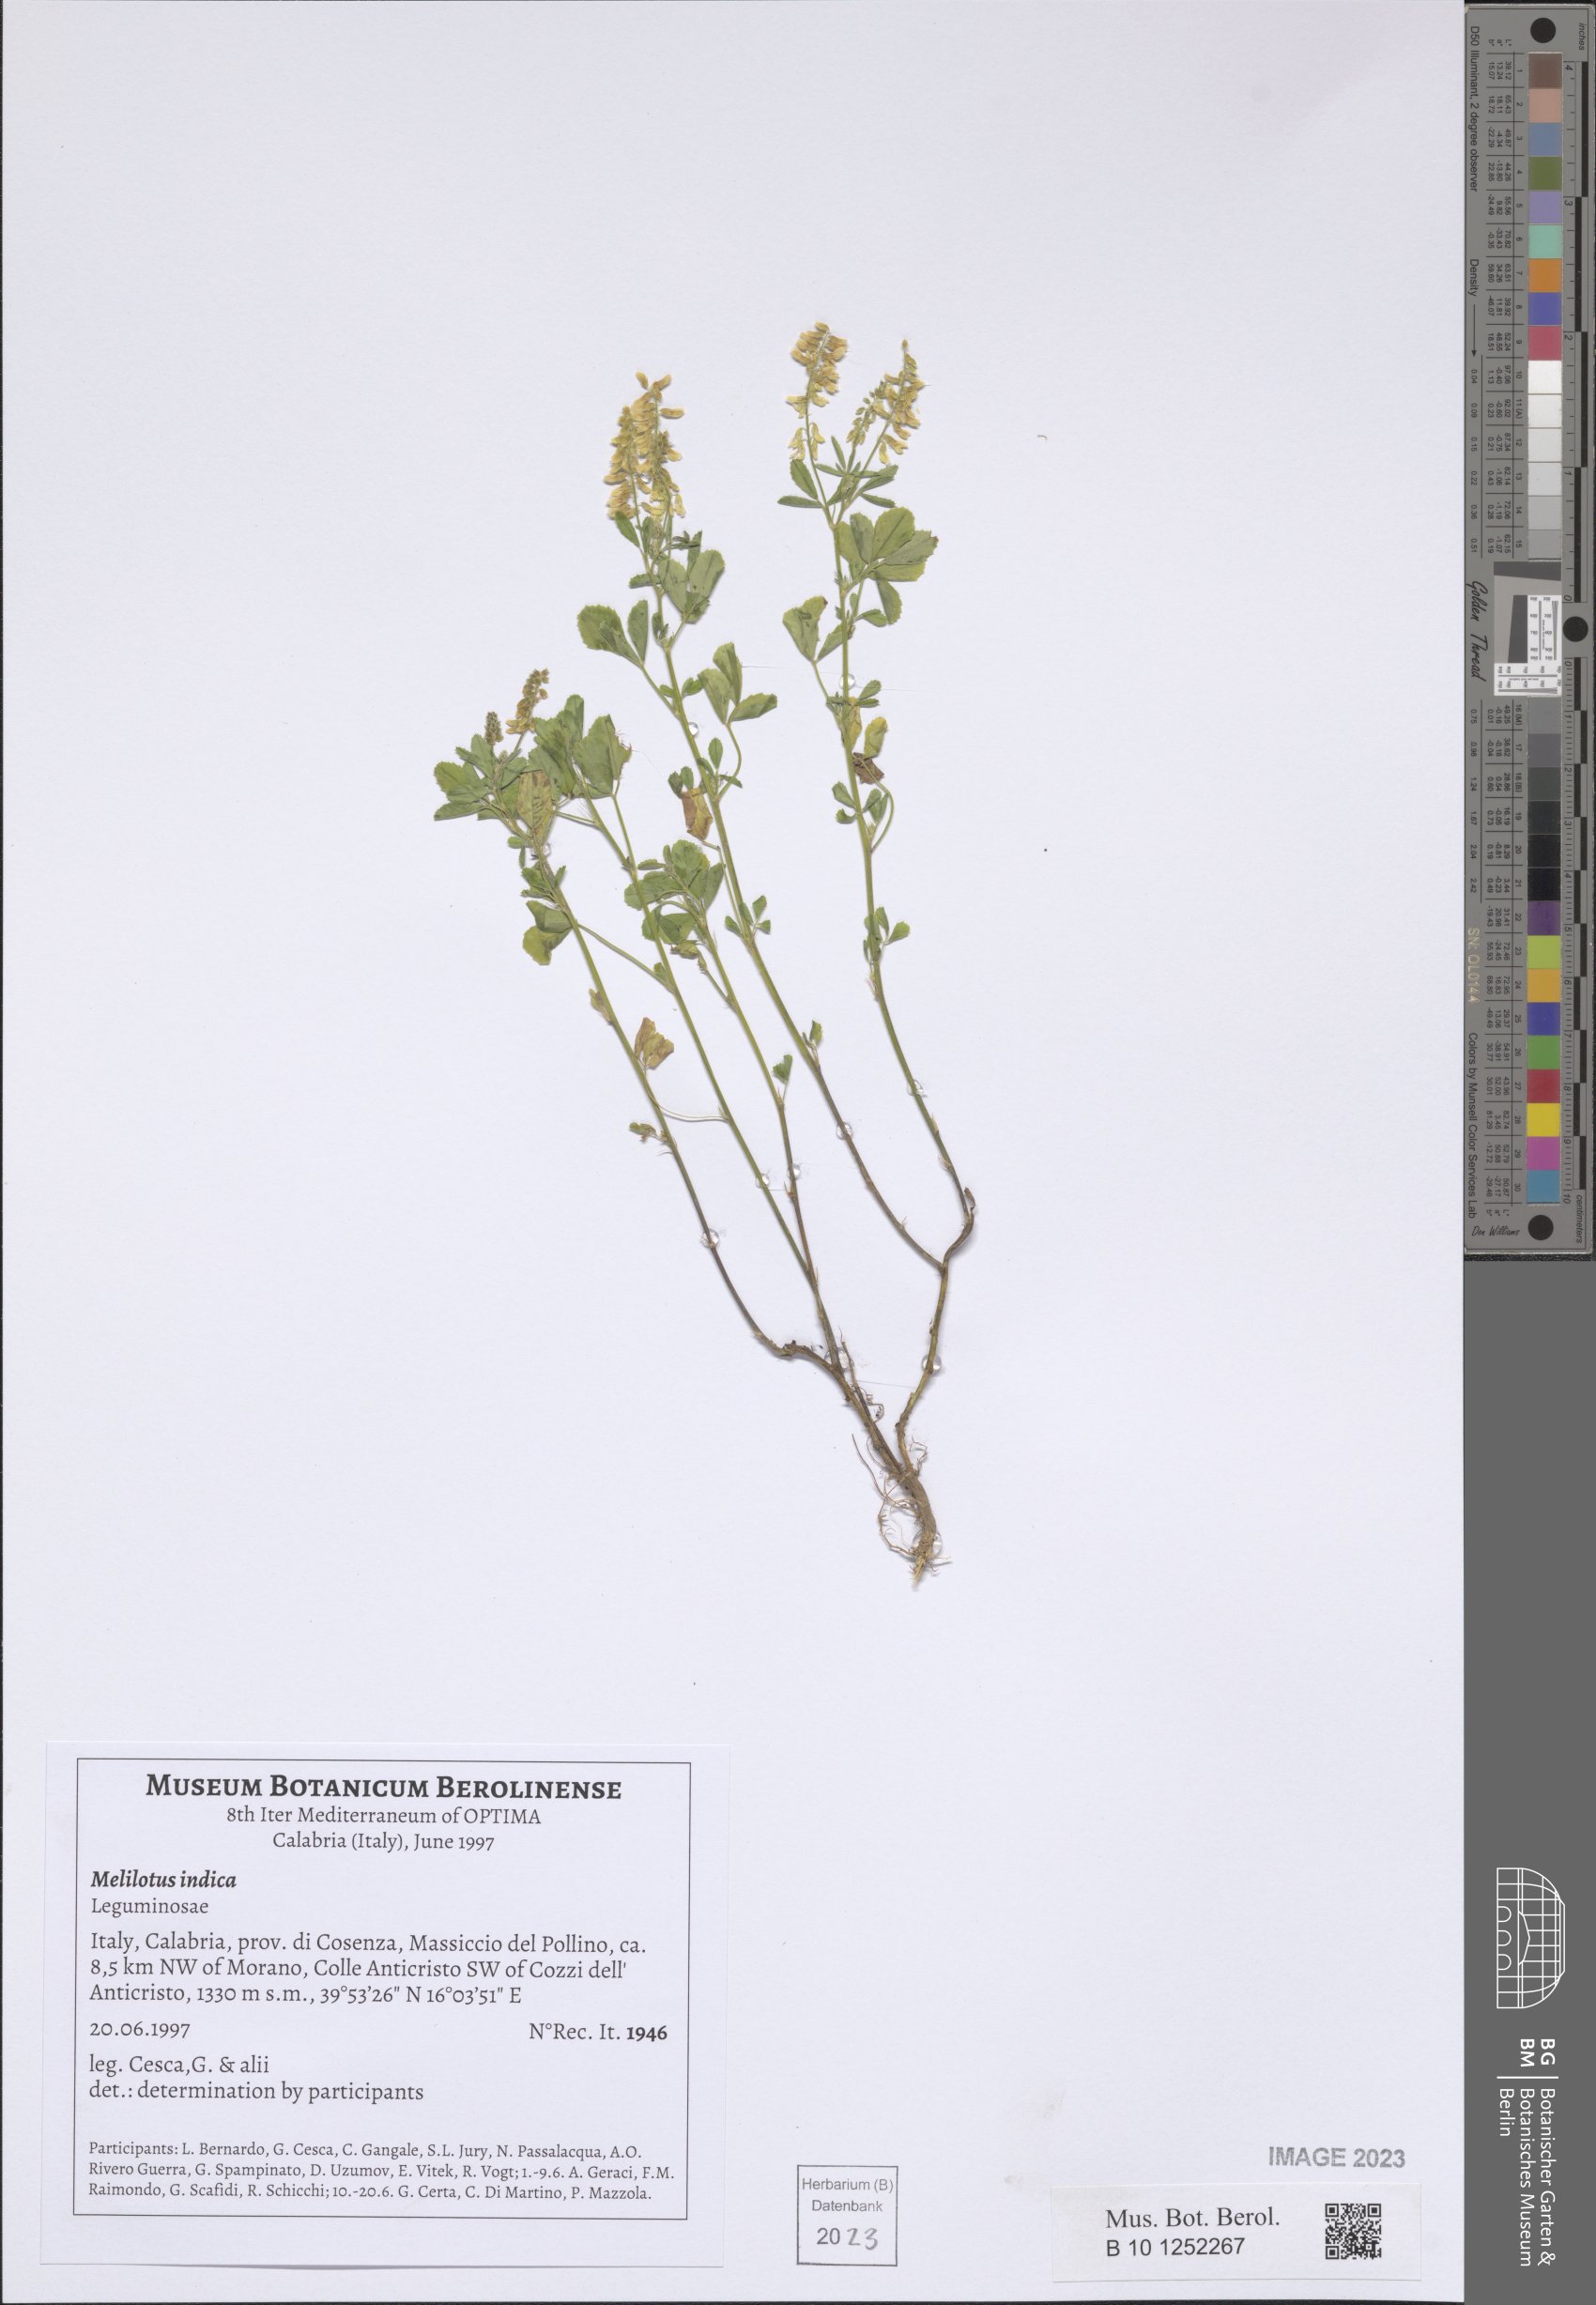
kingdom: Plantae
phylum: Tracheophyta
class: Magnoliopsida
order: Fabales
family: Fabaceae
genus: Melilotus
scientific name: Melilotus indicus
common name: Small melilot
